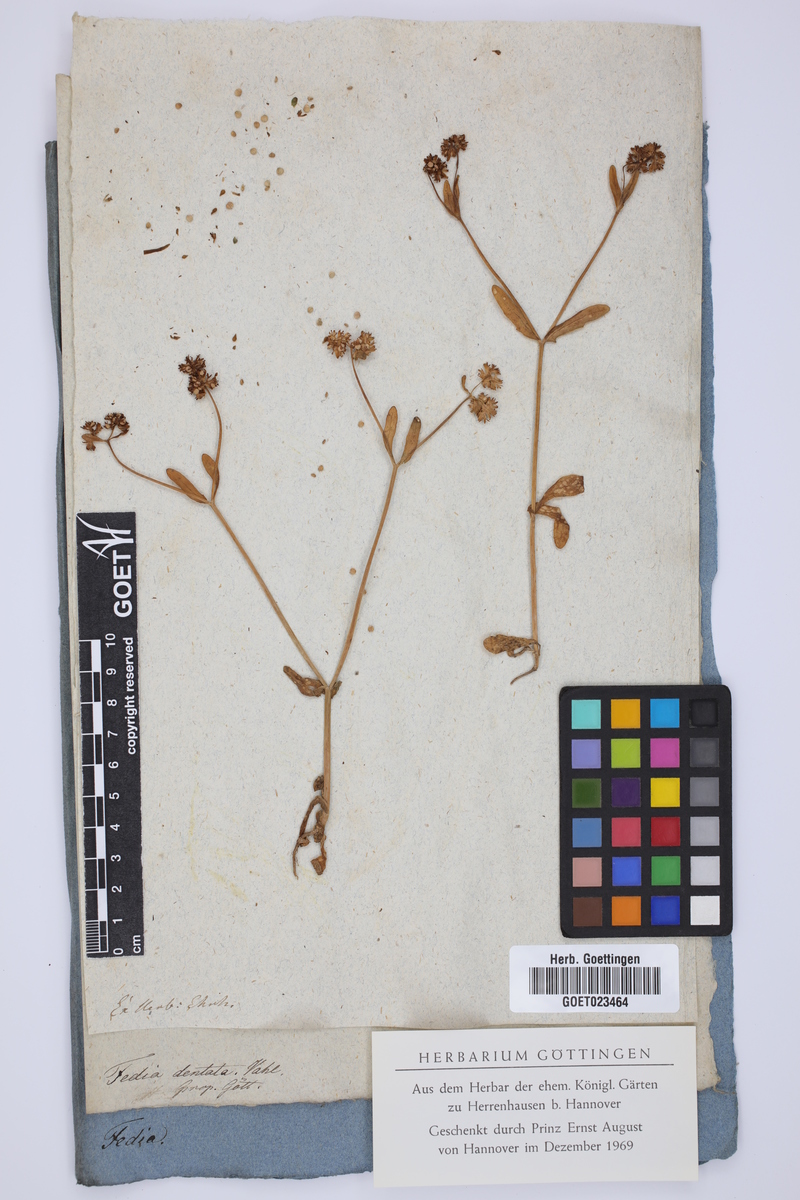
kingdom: Plantae
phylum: Tracheophyta
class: Magnoliopsida
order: Dipsacales
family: Caprifoliaceae
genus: Valerianella
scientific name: Valerianella dentata
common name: Narrow-fruited cornsalad
